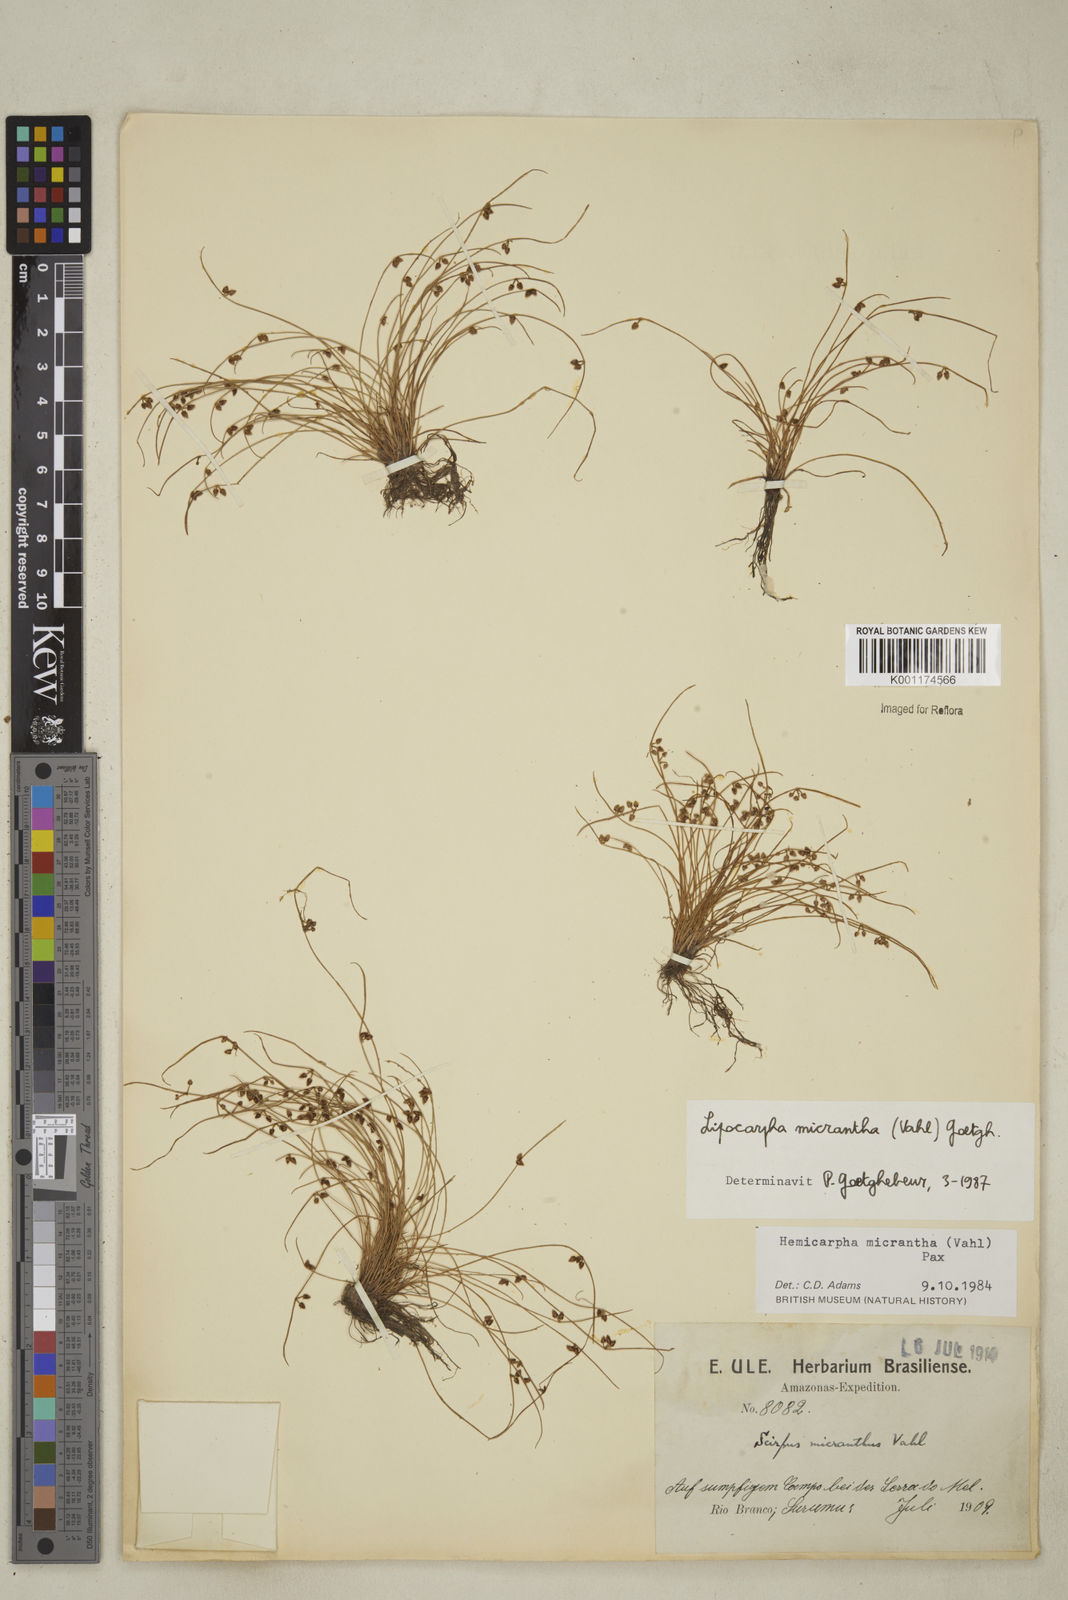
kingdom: Plantae
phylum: Tracheophyta
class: Liliopsida
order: Poales
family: Cyperaceae
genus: Cyperus
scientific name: Cyperus
